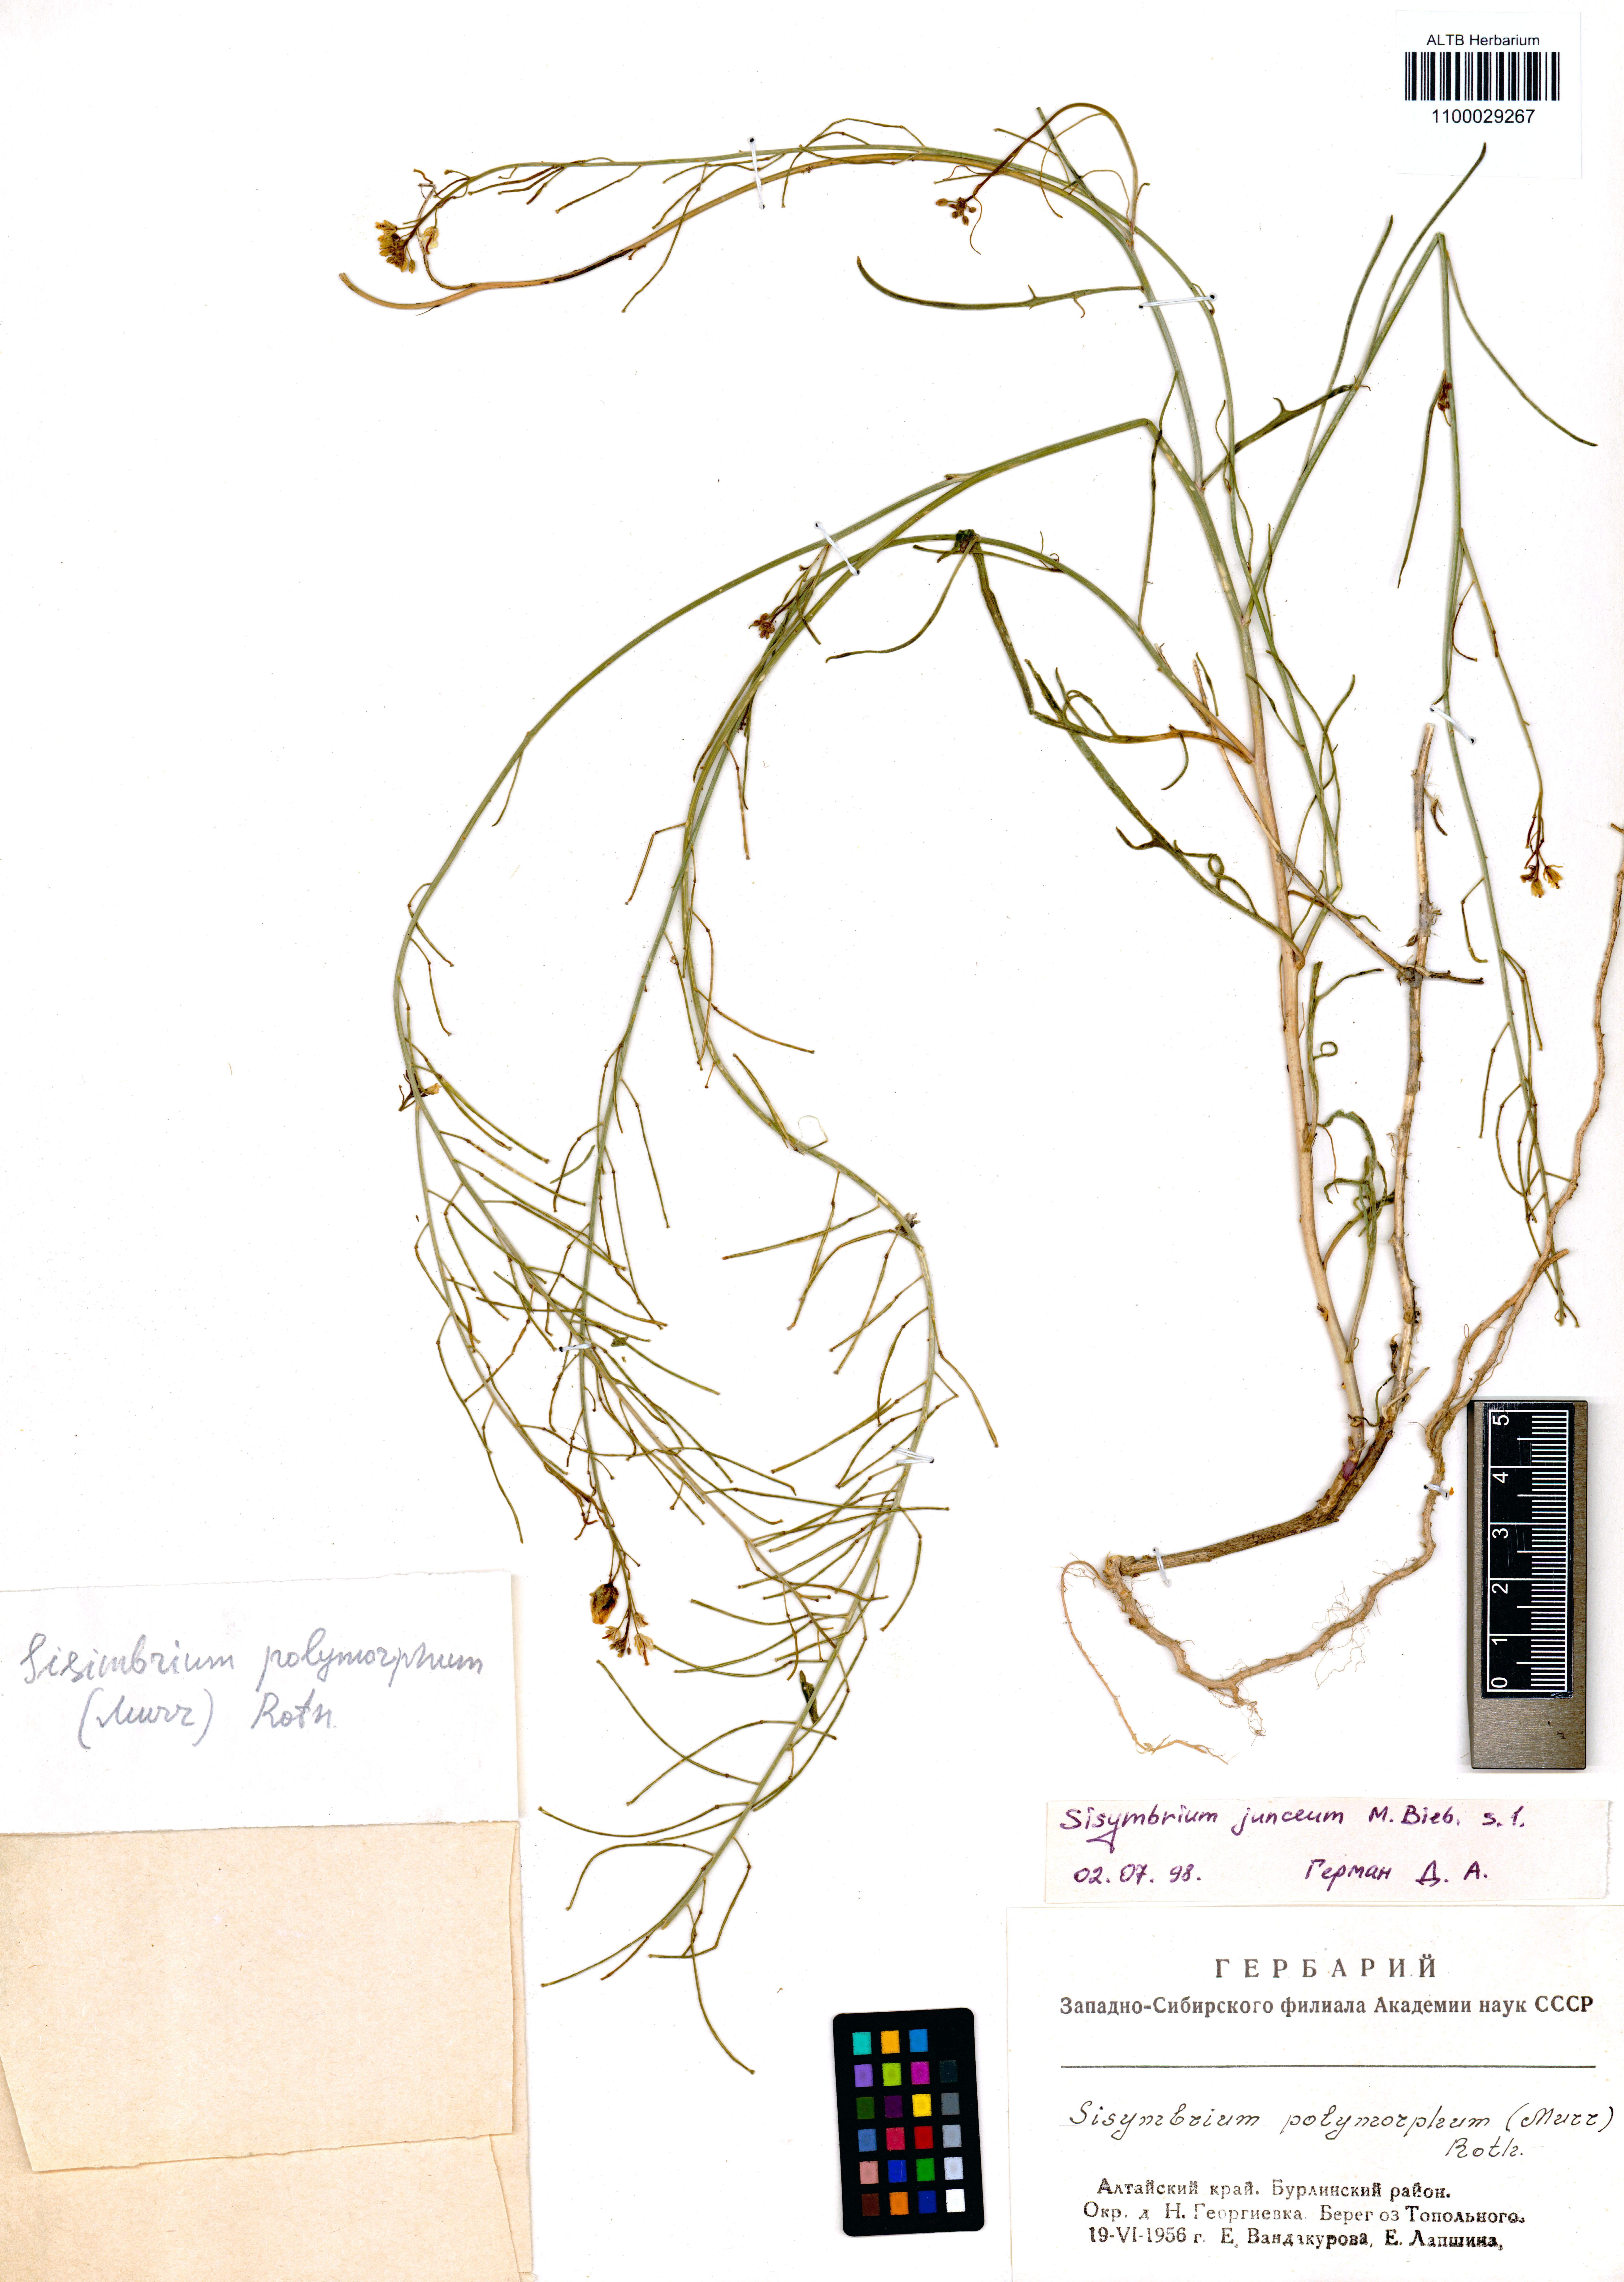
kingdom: Plantae
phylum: Tracheophyta
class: Magnoliopsida
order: Brassicales
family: Brassicaceae
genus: Sisymbrium
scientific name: Sisymbrium polymorphum
